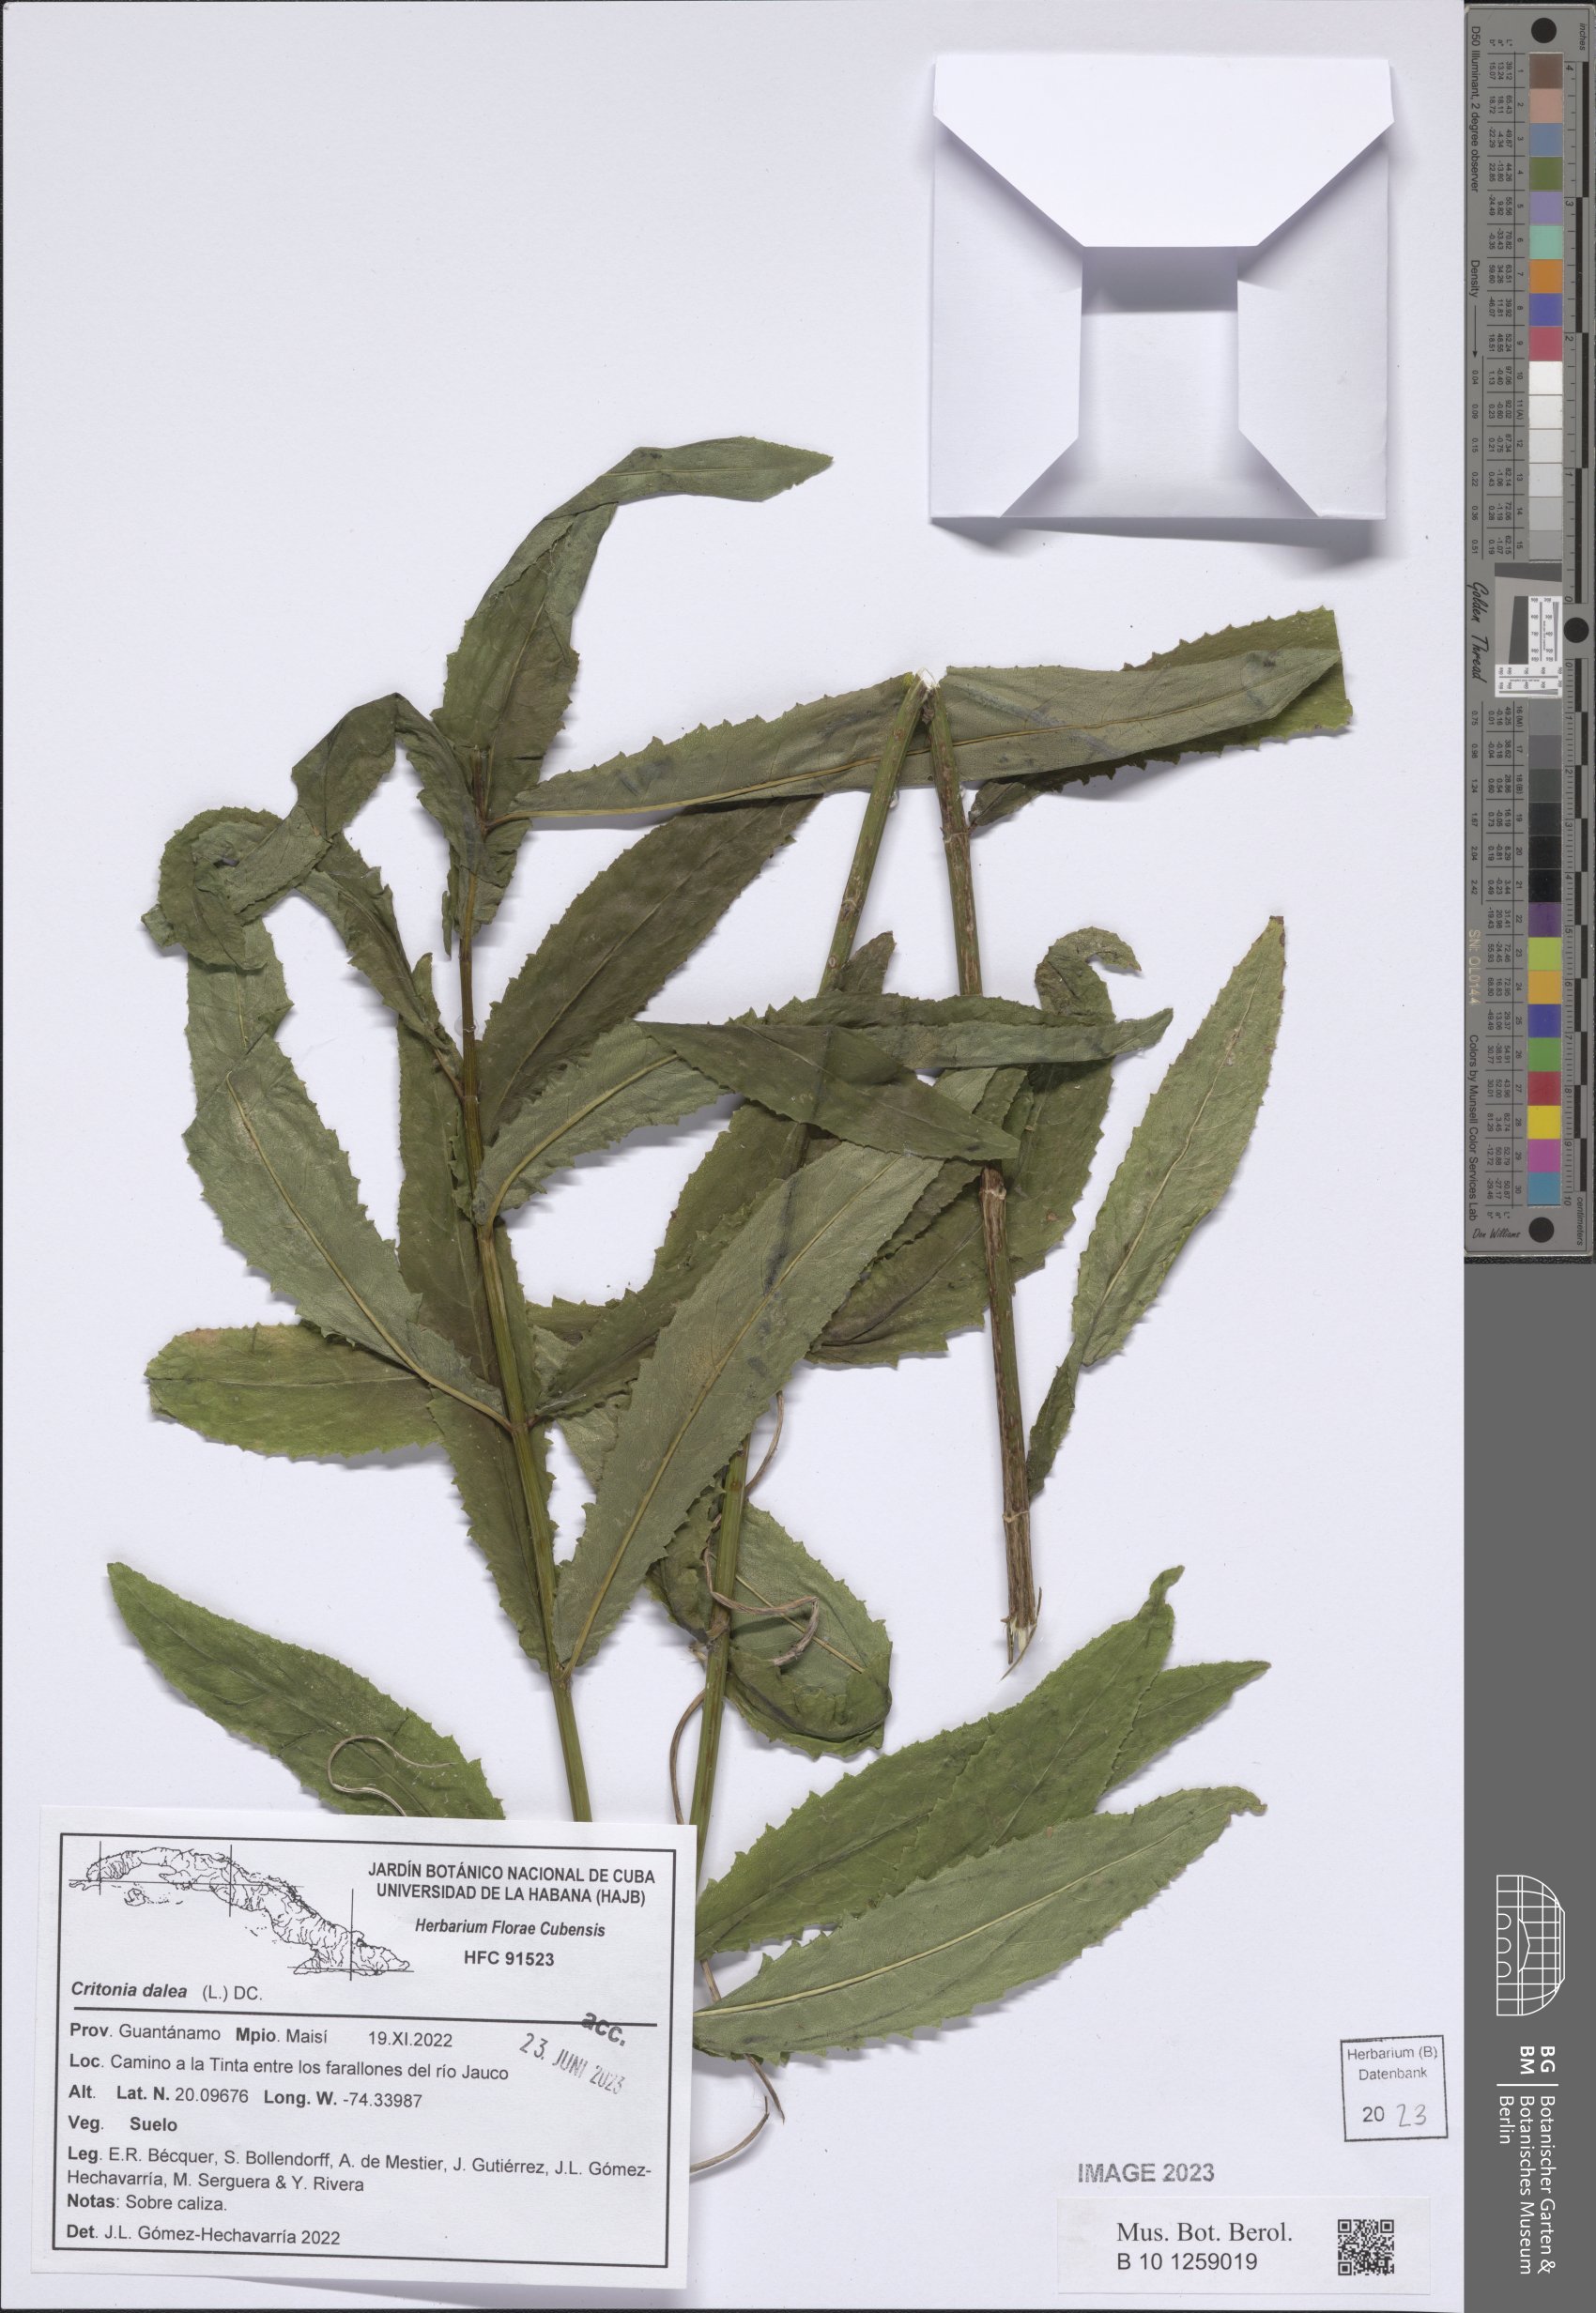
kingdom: Plantae
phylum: Tracheophyta
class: Magnoliopsida
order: Asterales
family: Asteraceae
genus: Critonia
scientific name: Critonia dalea
